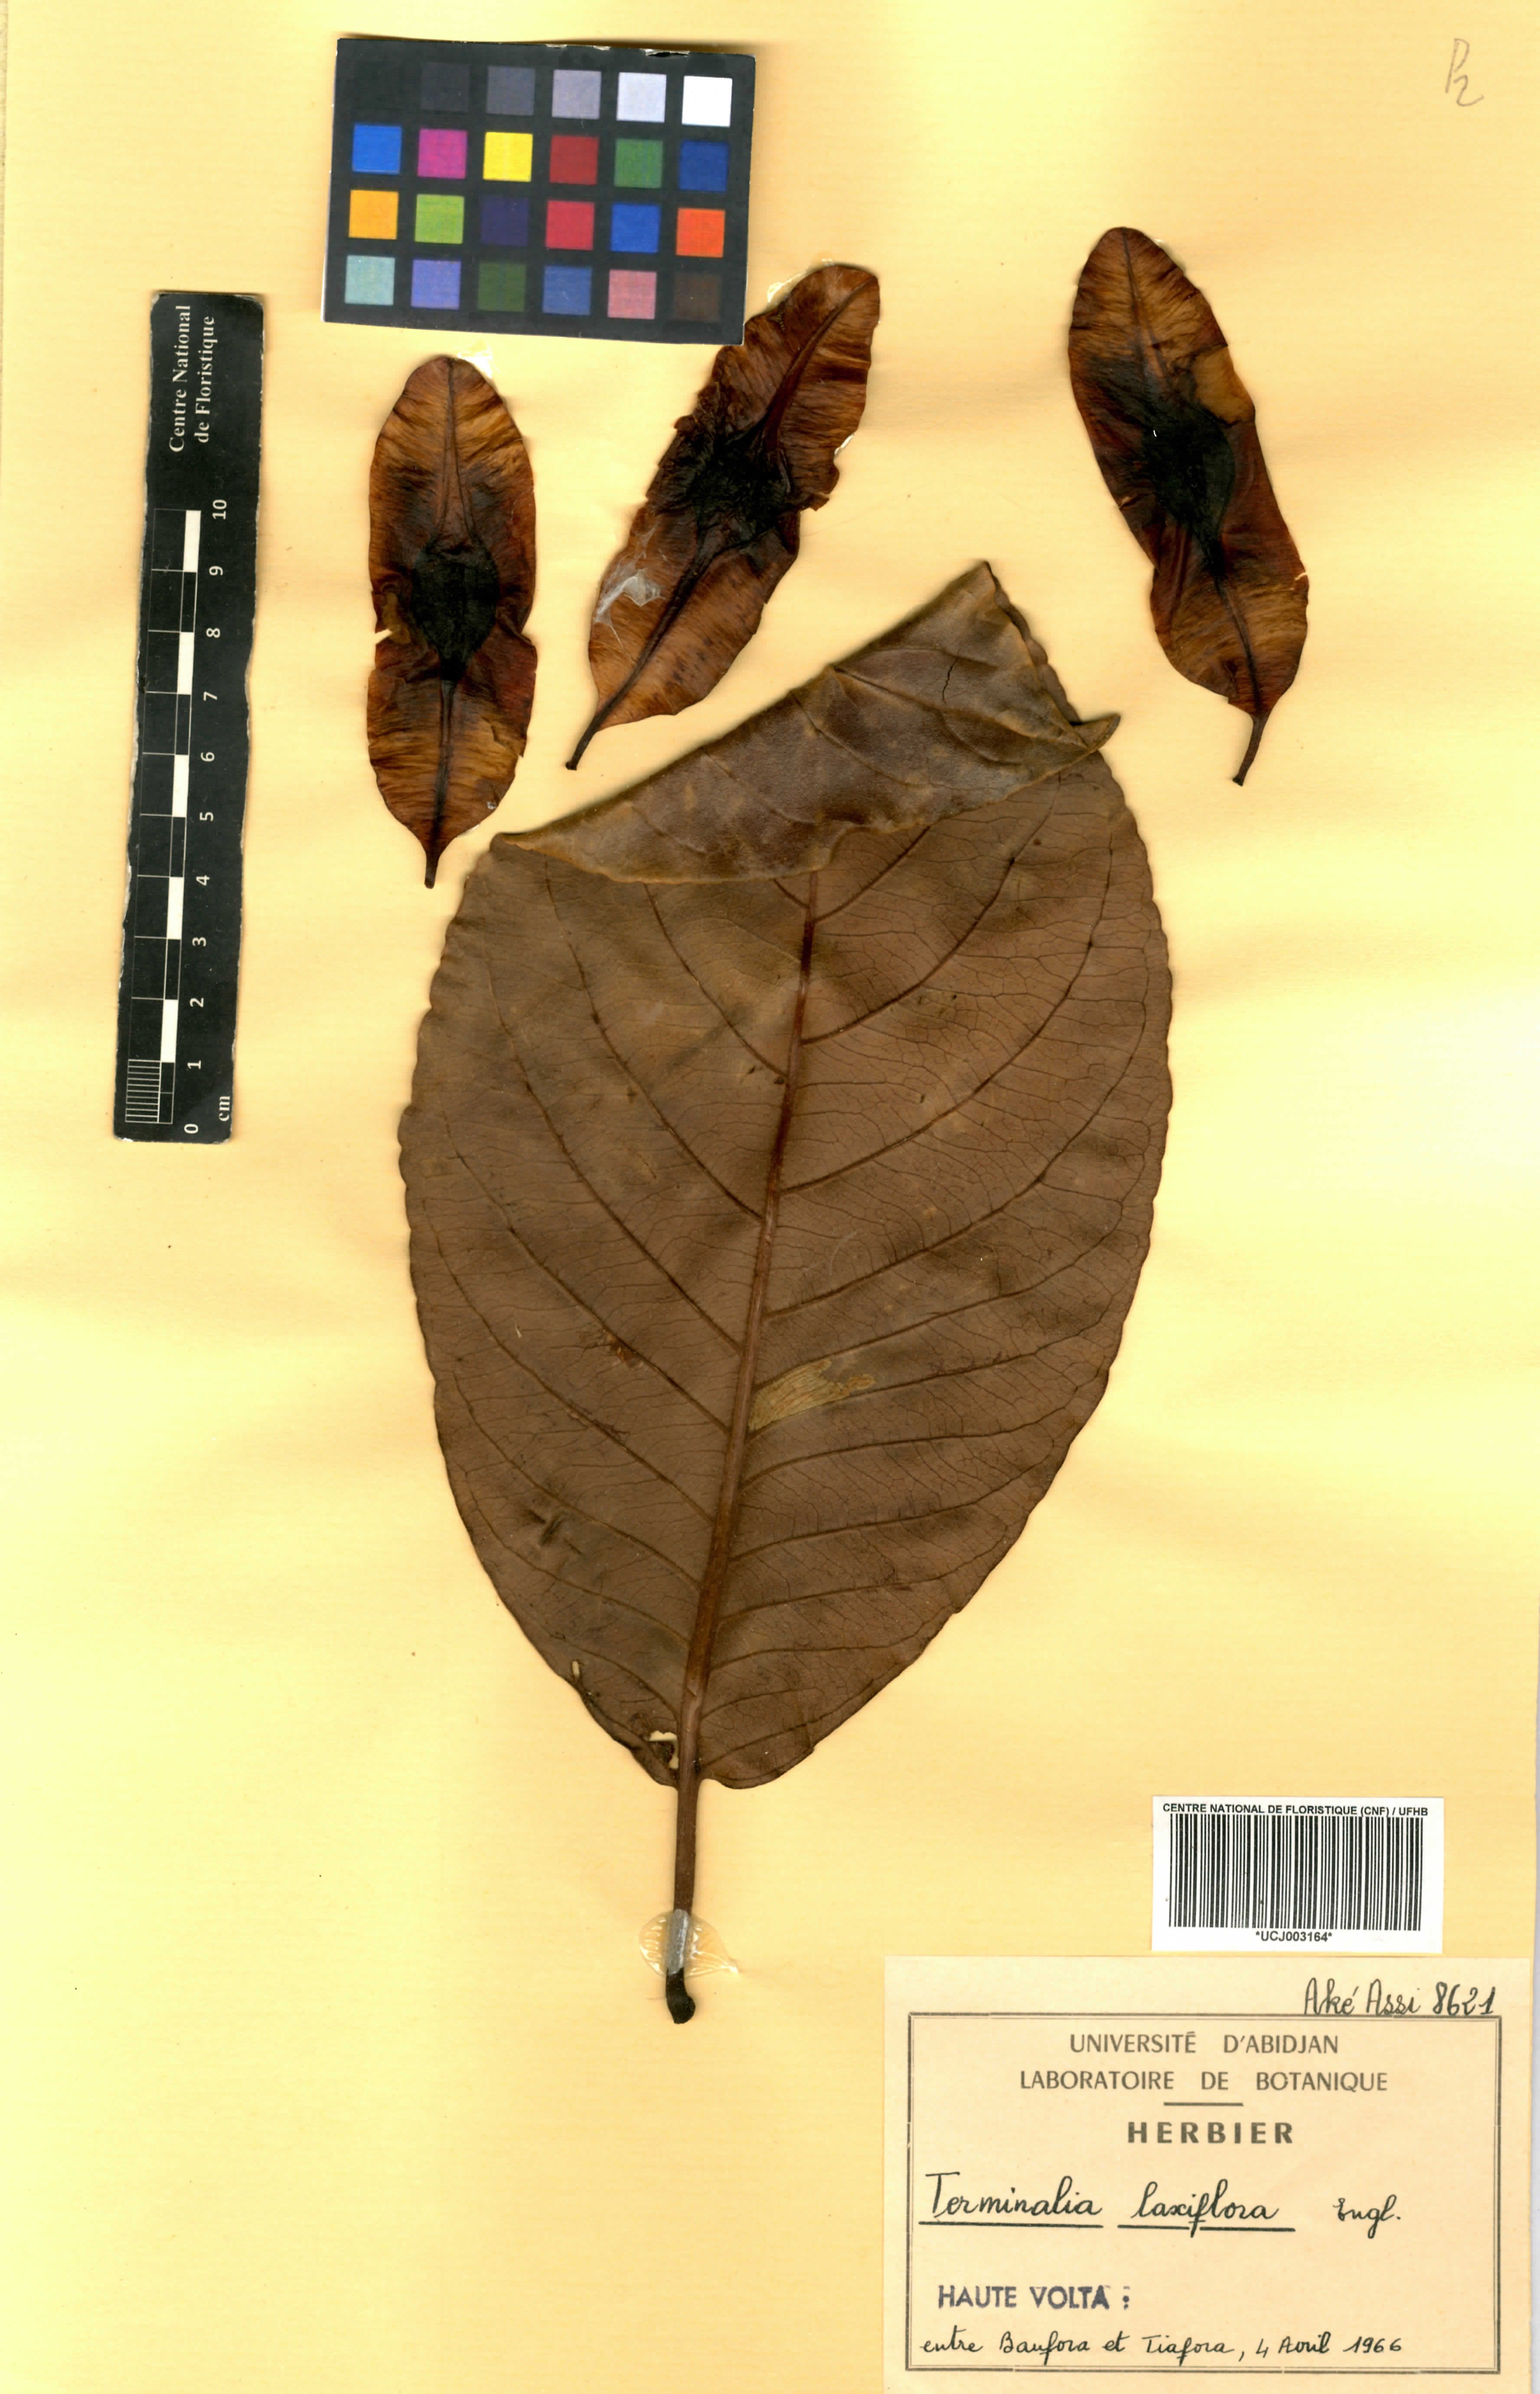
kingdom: Plantae
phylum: Tracheophyta
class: Magnoliopsida
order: Myrtales
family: Combretaceae
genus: Terminalia
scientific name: Terminalia laxiflora
